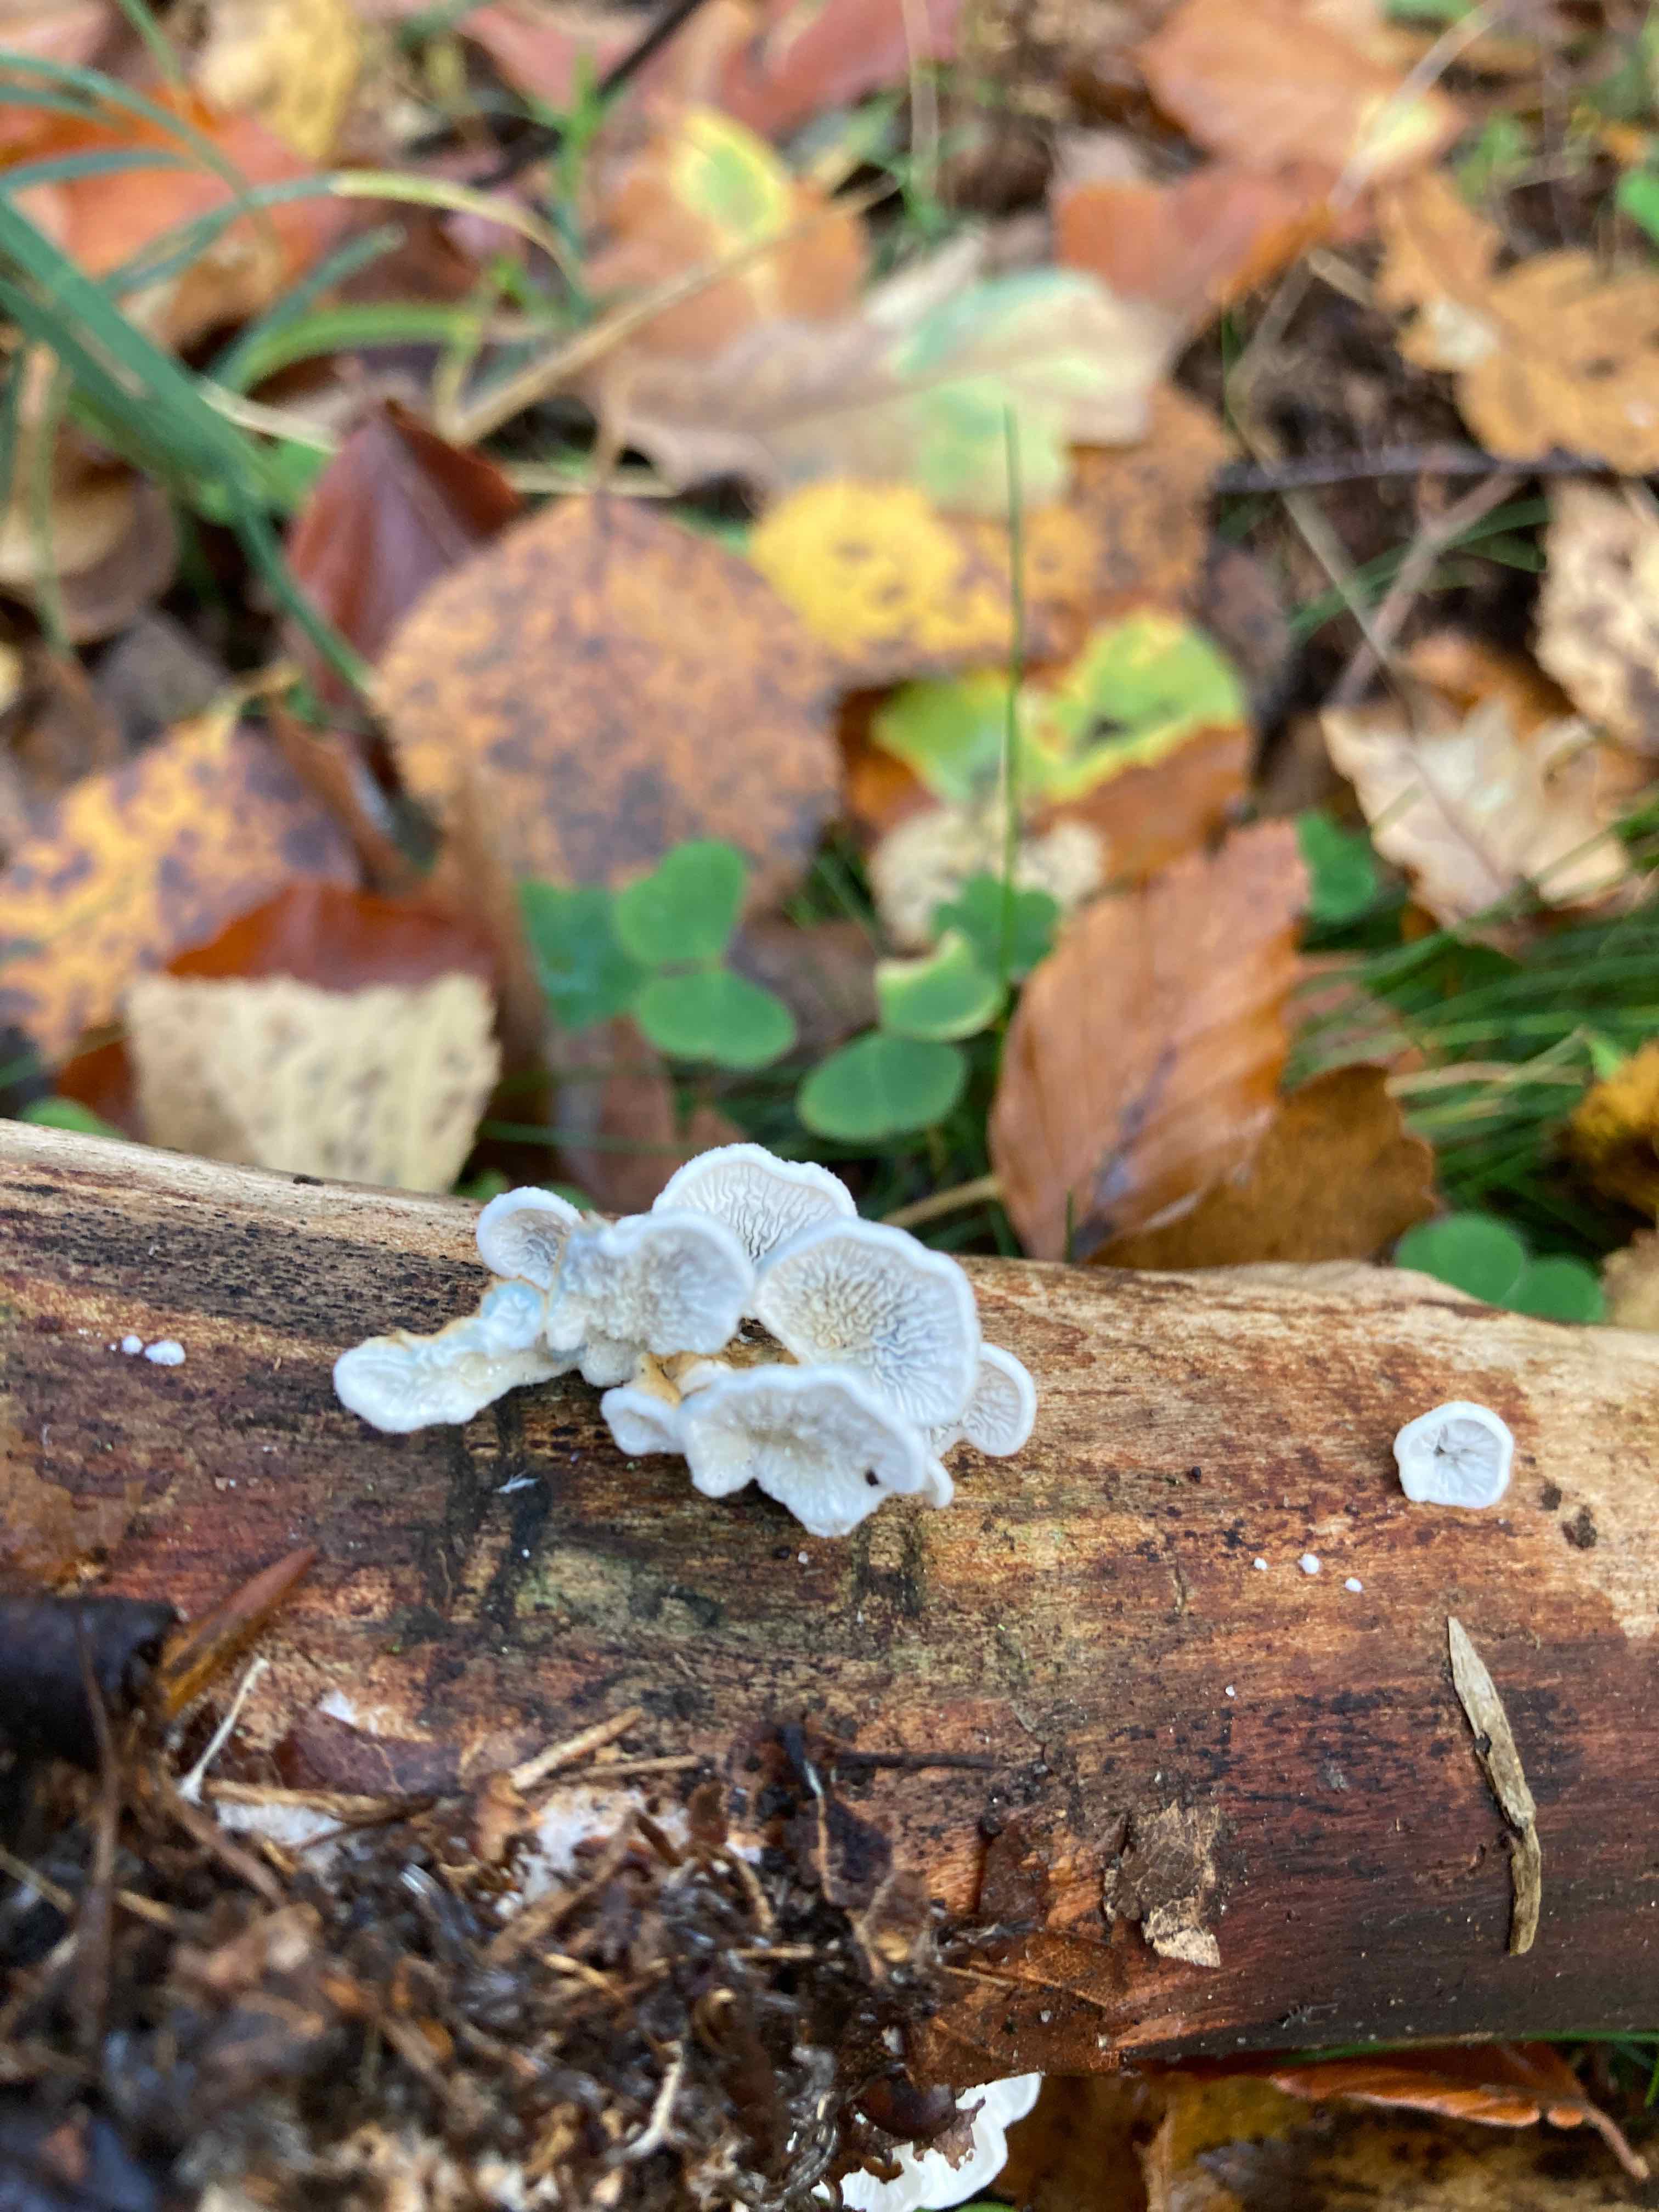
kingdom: Fungi
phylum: Basidiomycota
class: Agaricomycetes
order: Amylocorticiales
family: Amylocorticiaceae
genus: Plicaturopsis
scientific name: Plicaturopsis crispa
